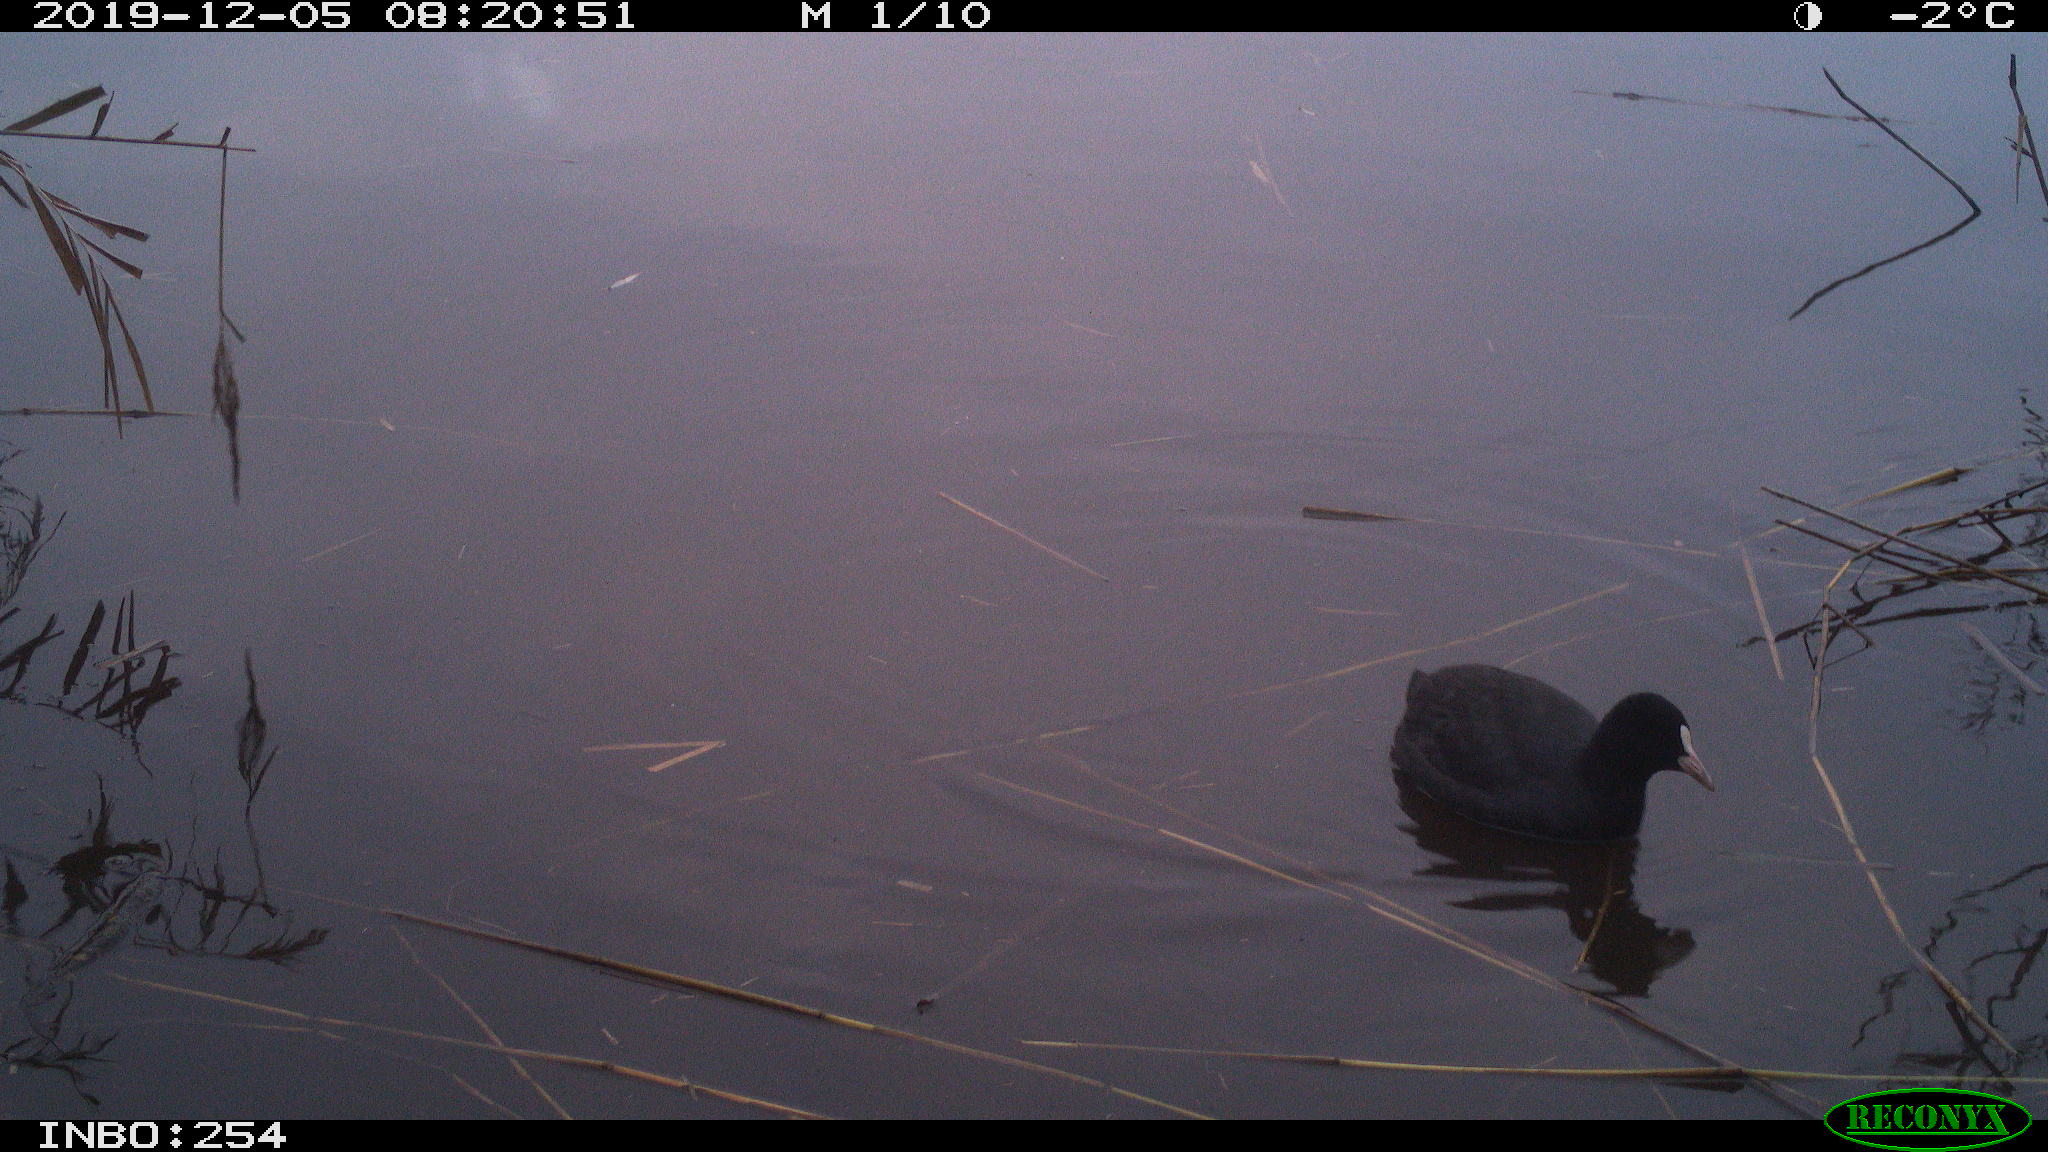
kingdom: Animalia
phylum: Chordata
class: Aves
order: Gruiformes
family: Rallidae
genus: Fulica
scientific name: Fulica atra
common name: Eurasian coot
